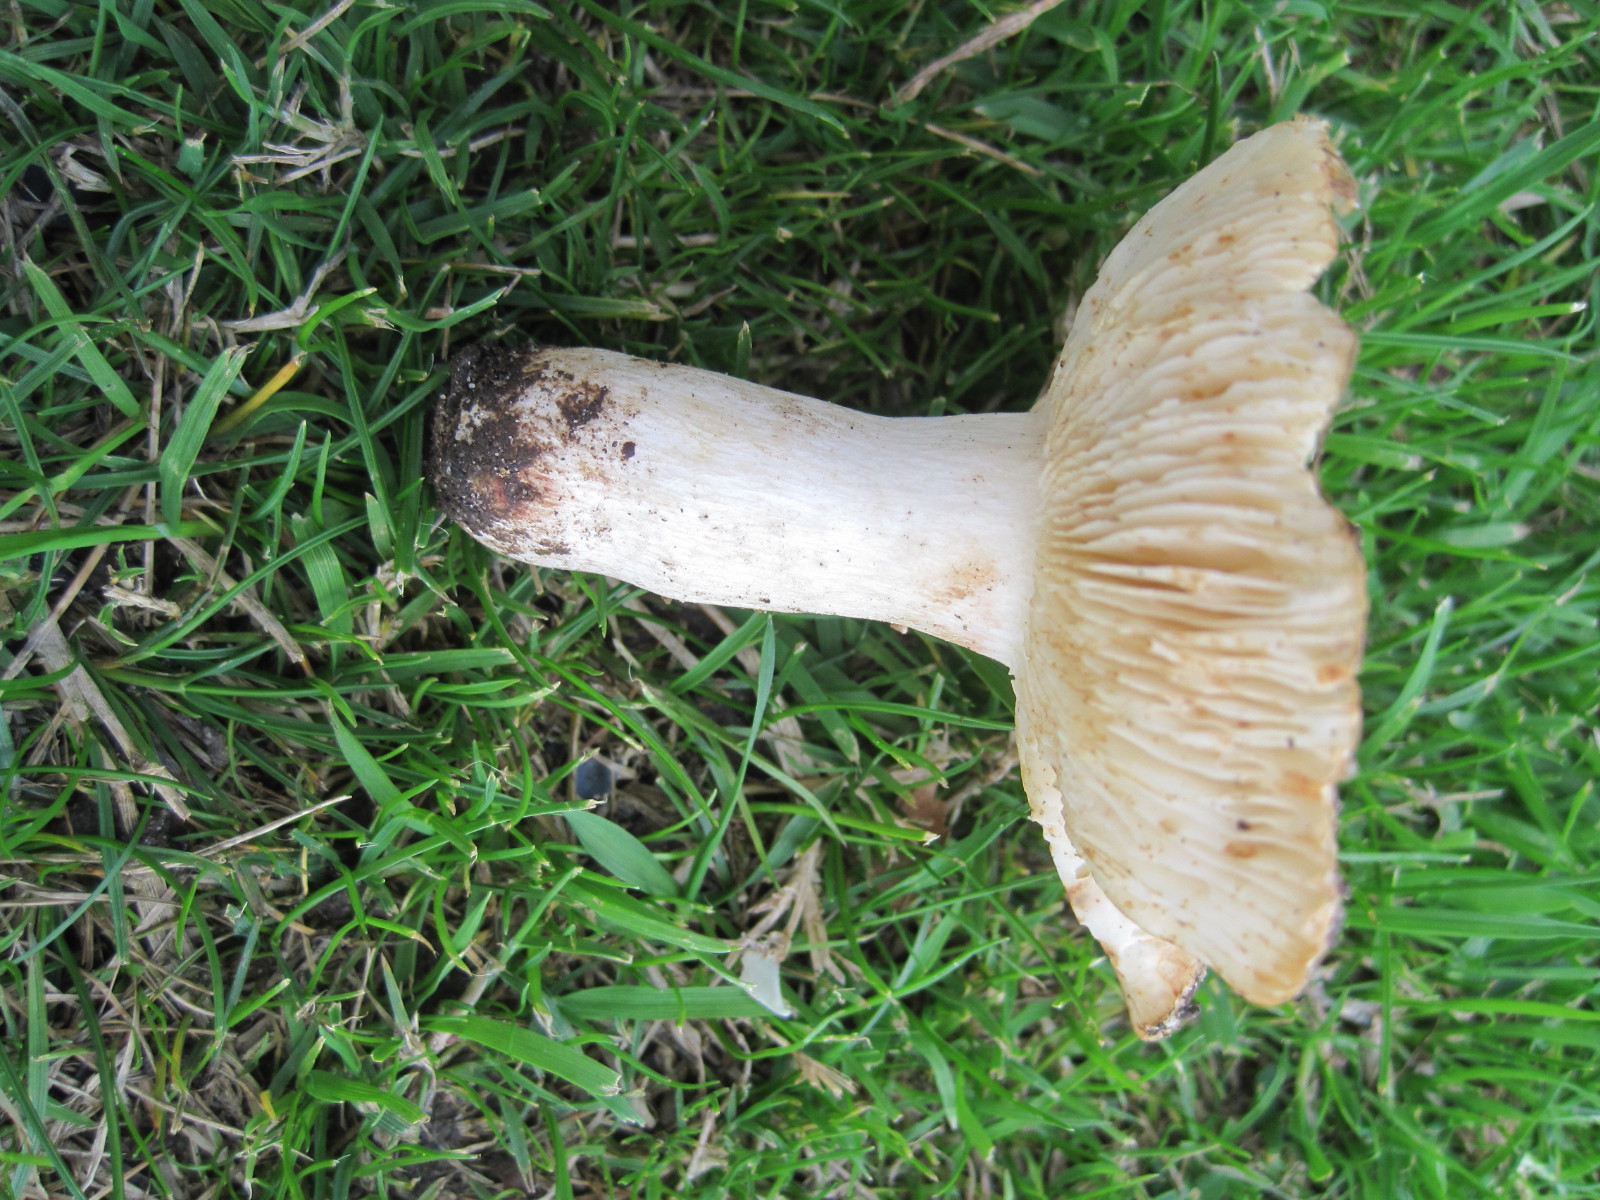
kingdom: Fungi
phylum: Basidiomycota
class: Agaricomycetes
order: Russulales
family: Russulaceae
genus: Russula
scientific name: Russula recondita
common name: mild kam-skørhat
